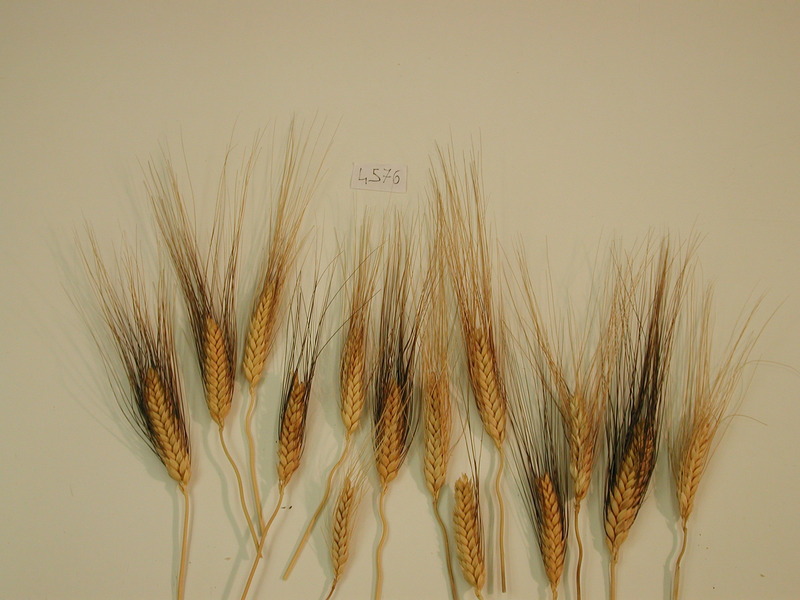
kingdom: Plantae
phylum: Tracheophyta
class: Liliopsida
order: Poales
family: Poaceae
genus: Triticum
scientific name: Triticum turgidum
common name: Wheat
